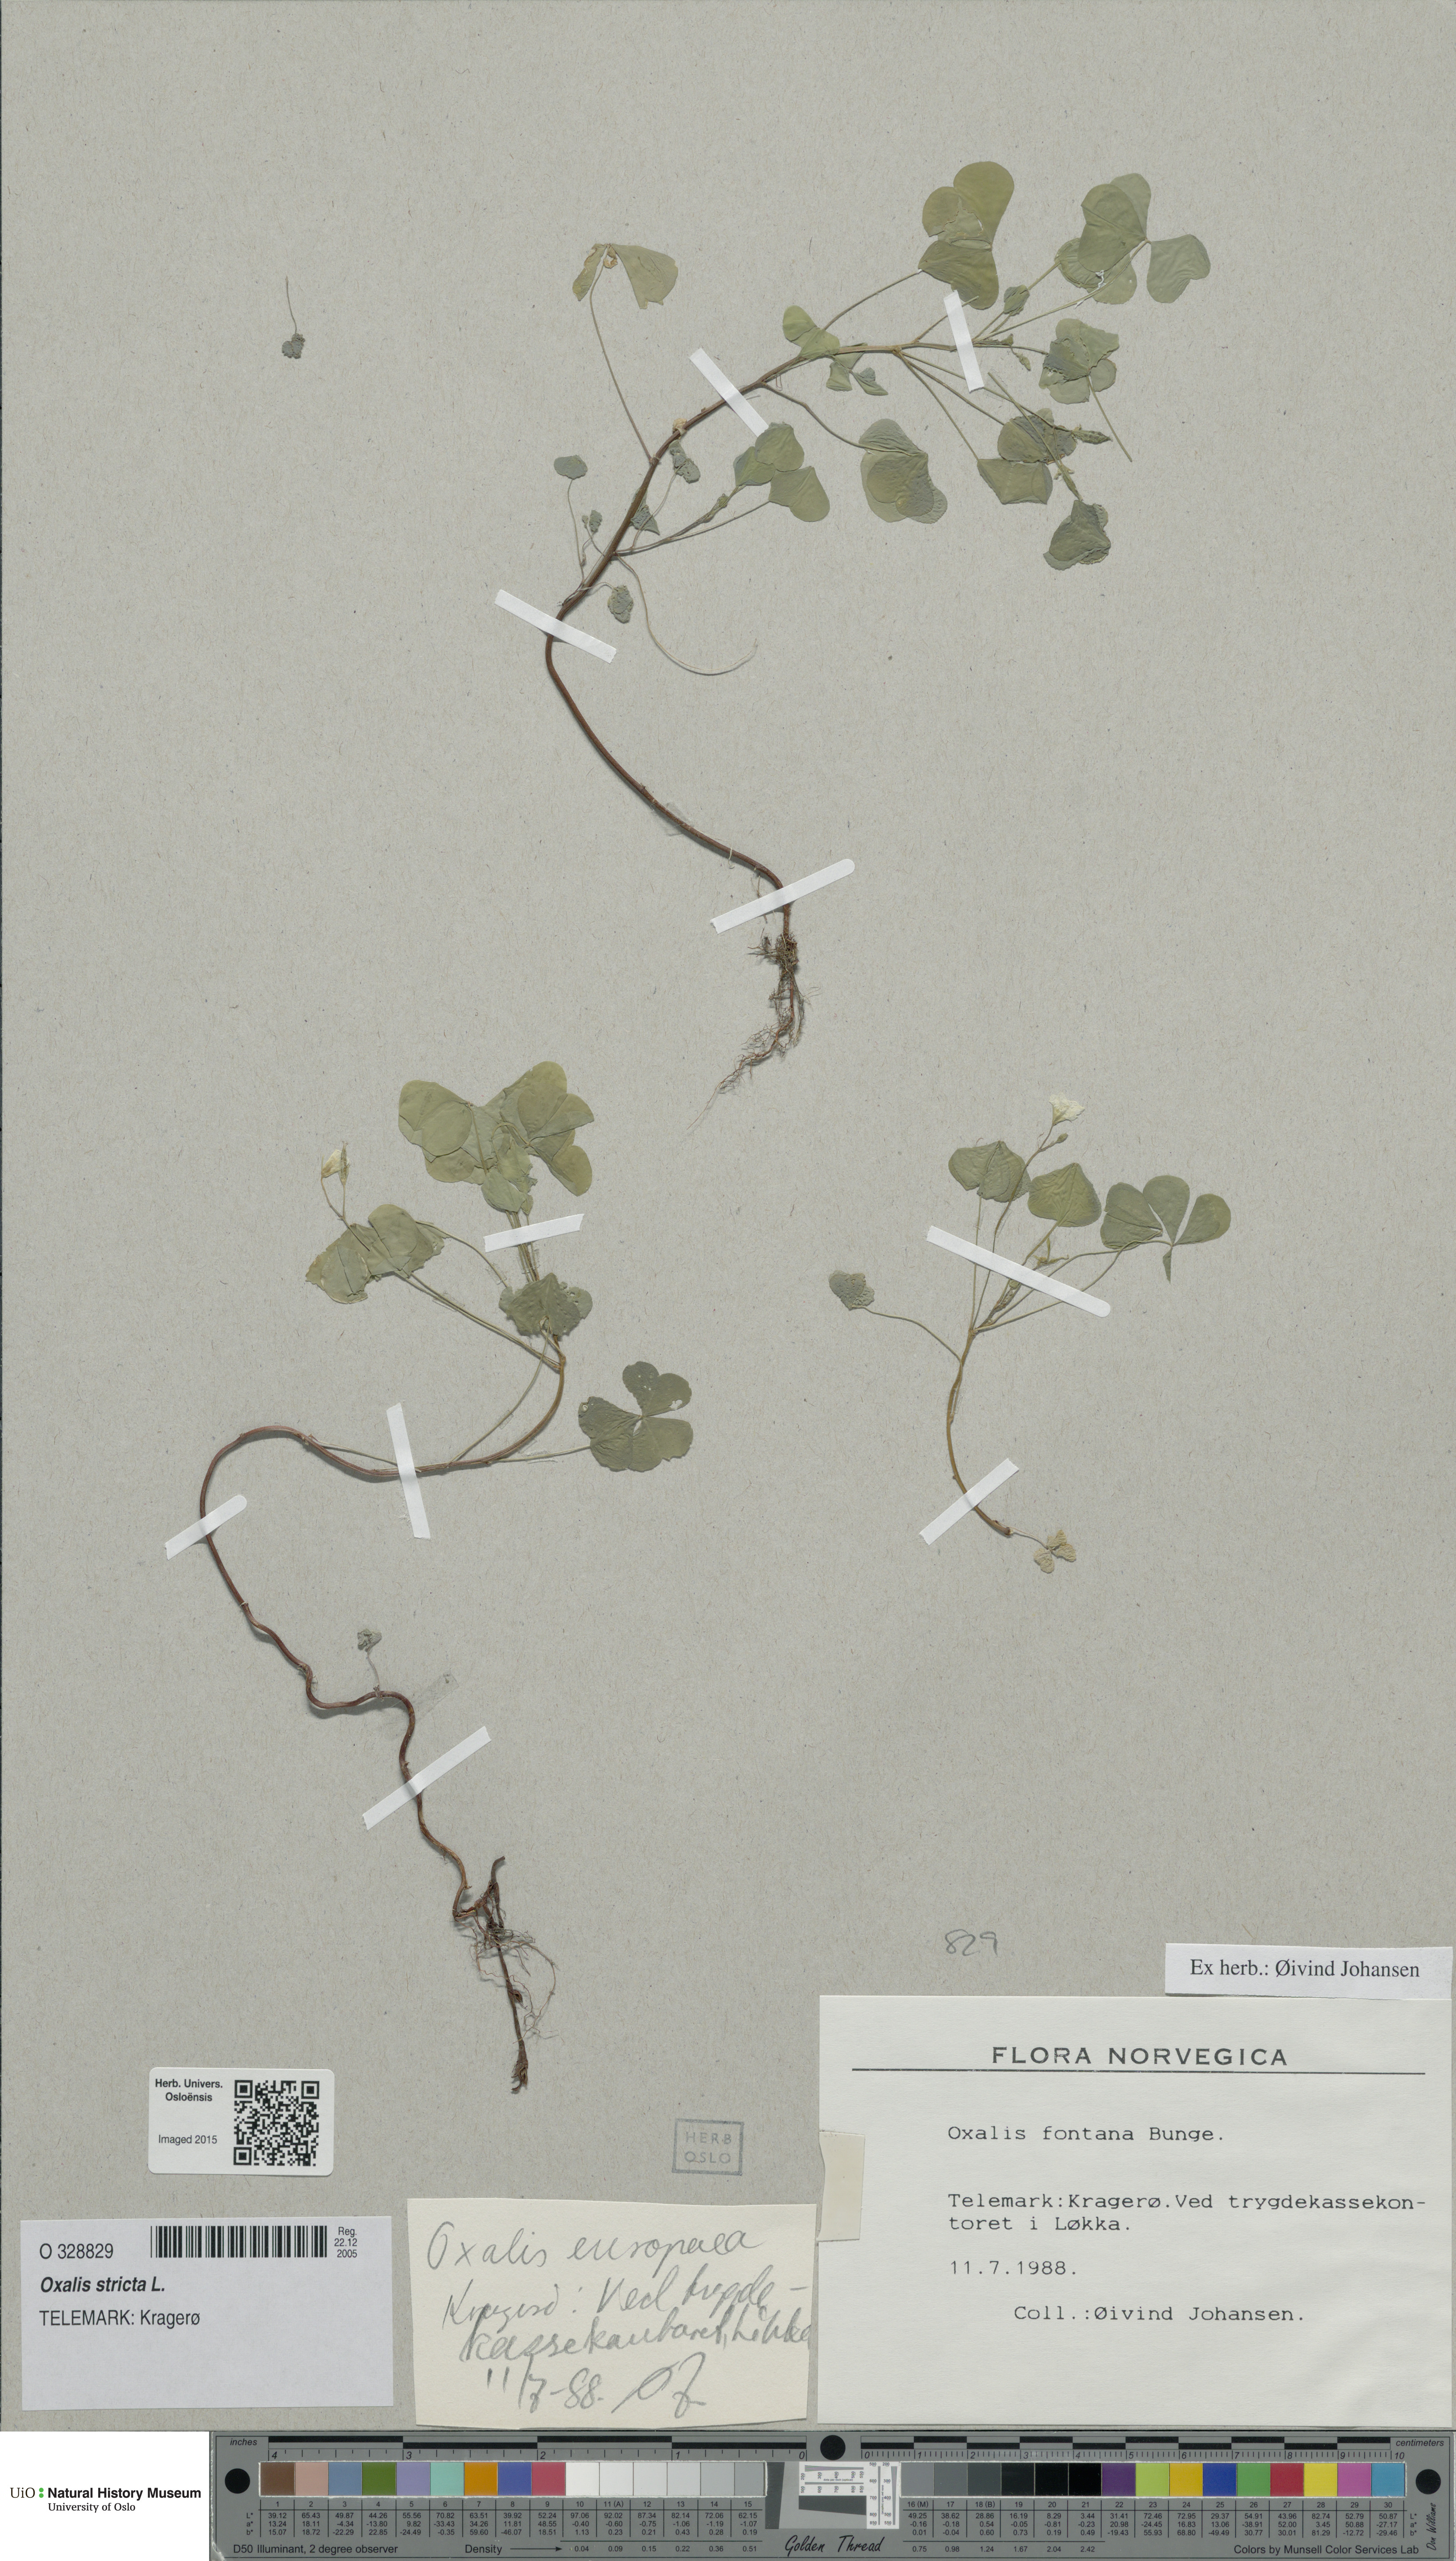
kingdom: Plantae
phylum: Tracheophyta
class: Magnoliopsida
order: Oxalidales
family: Oxalidaceae
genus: Oxalis
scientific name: Oxalis stricta
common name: Upright yellow-sorrel
